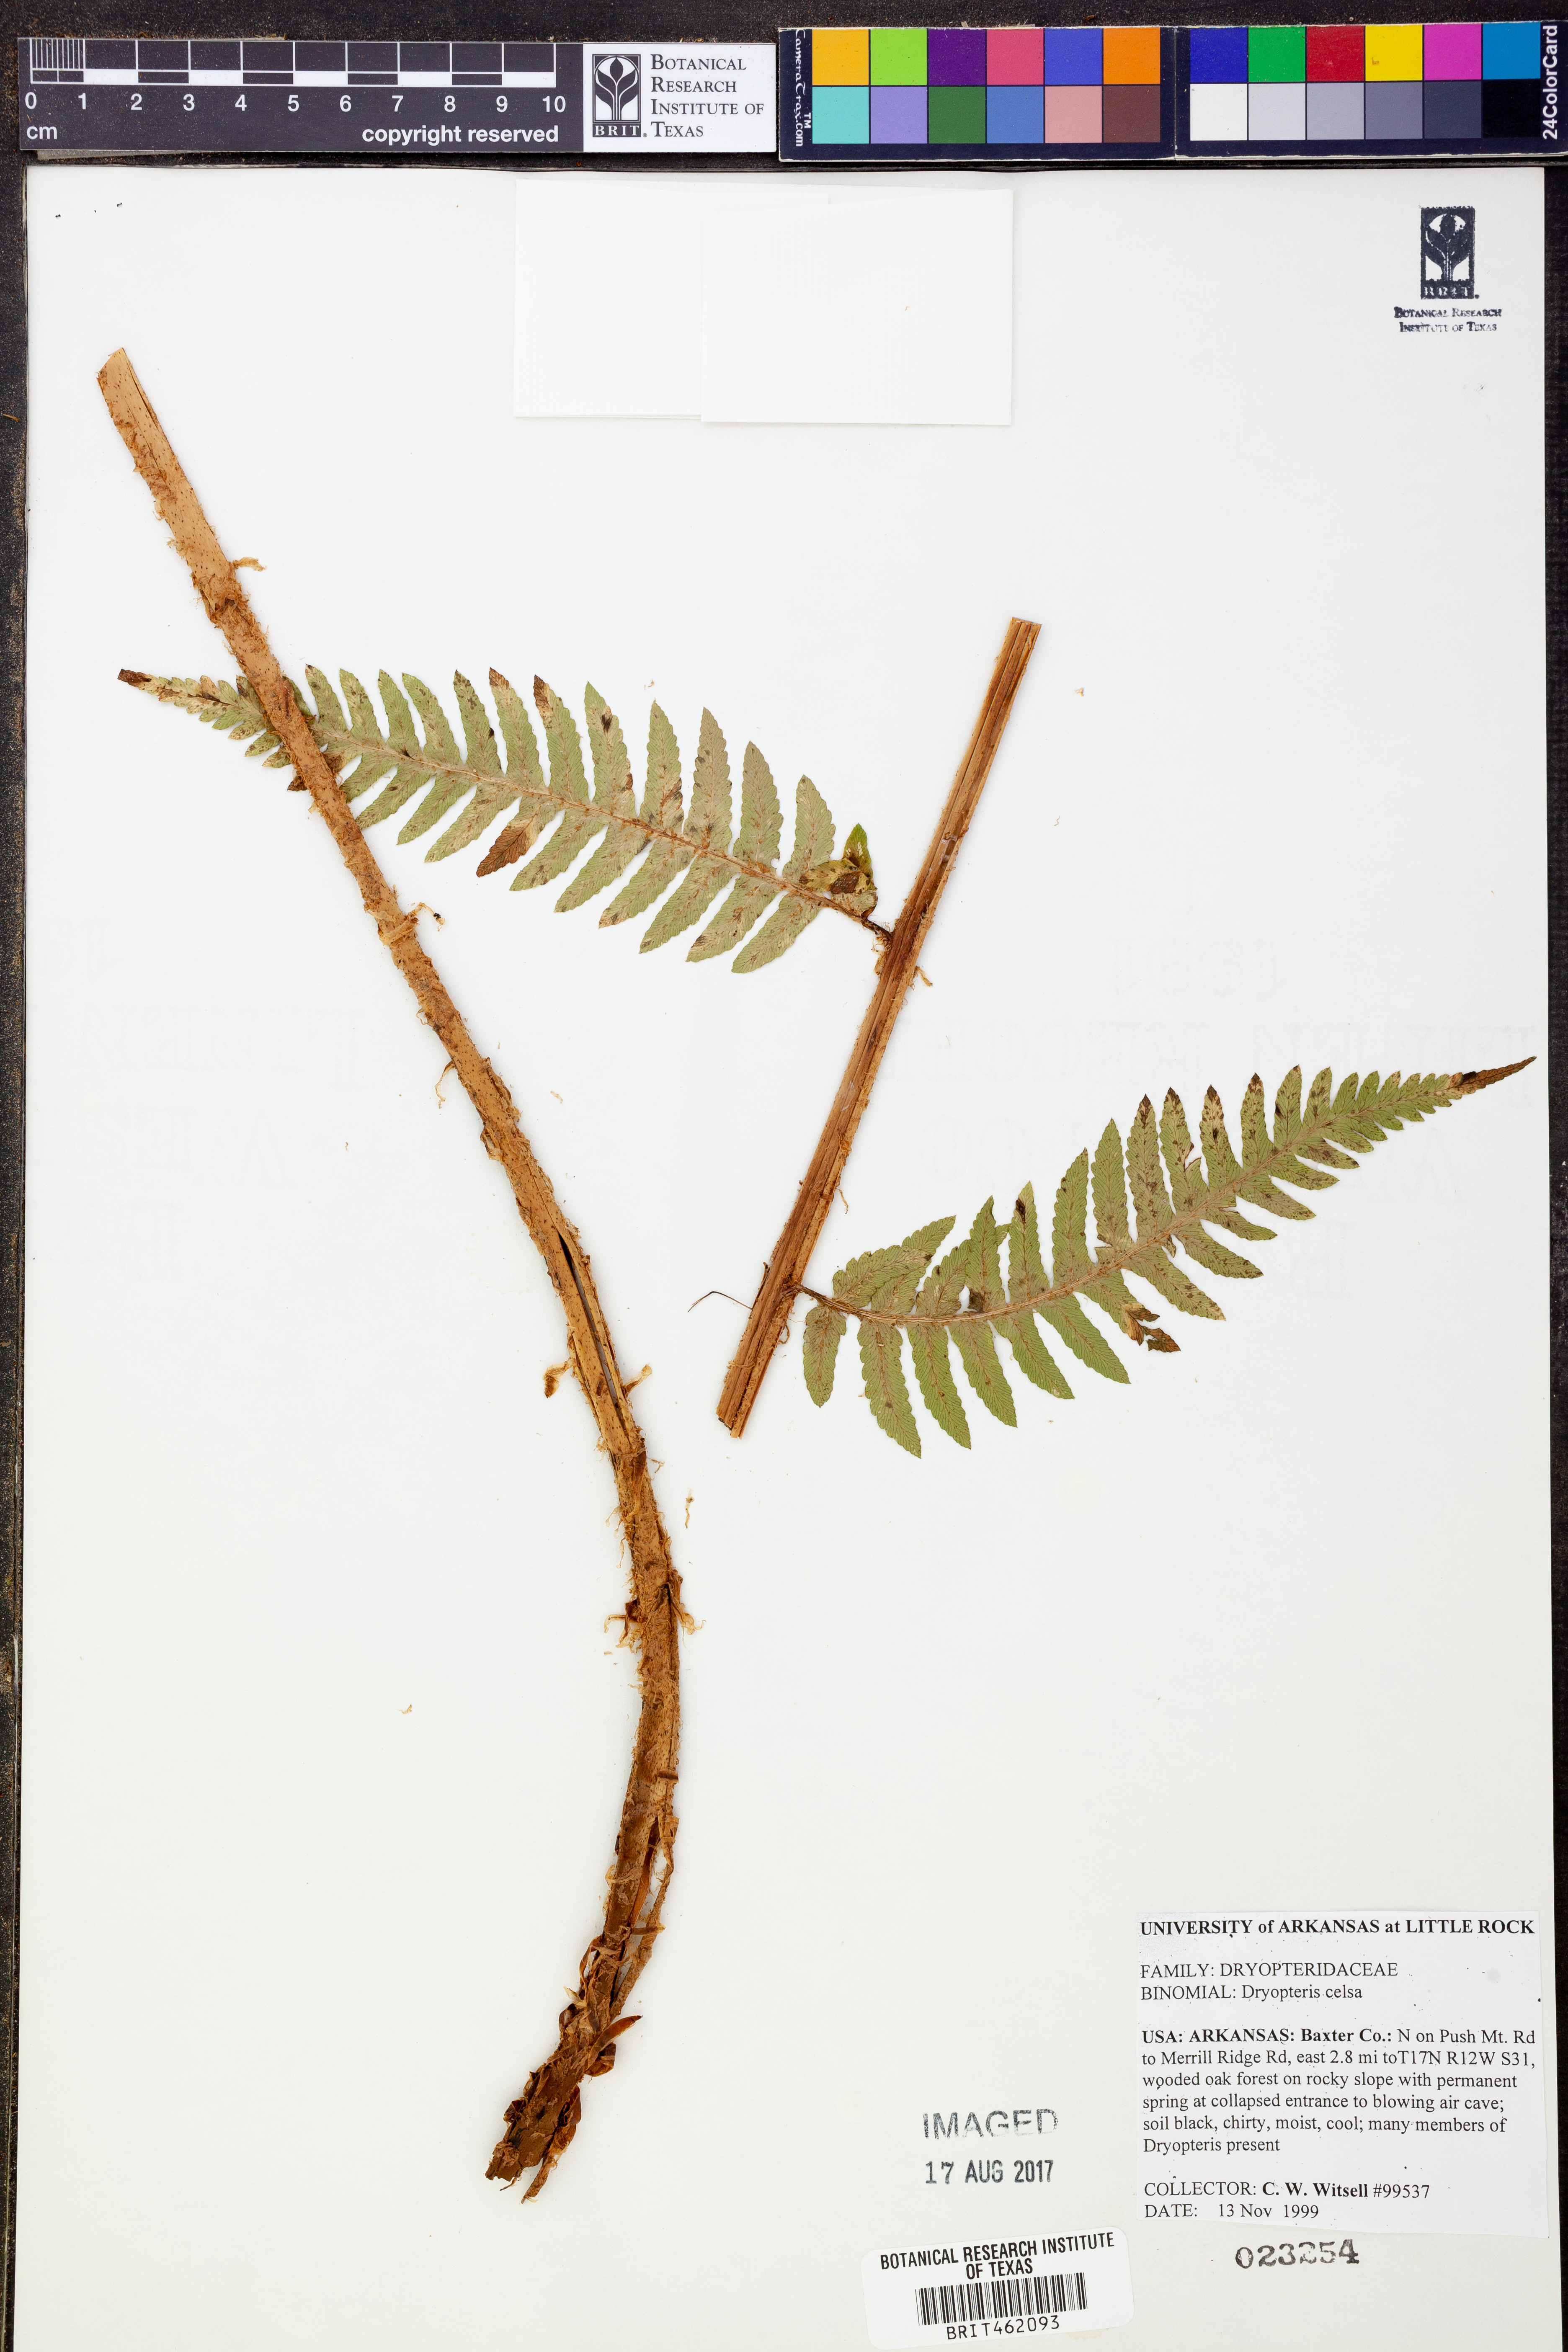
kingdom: Plantae
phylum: Tracheophyta
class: Polypodiopsida
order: Polypodiales
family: Dryopteridaceae
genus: Dryopteris
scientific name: Dryopteris celsa
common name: Log fern
